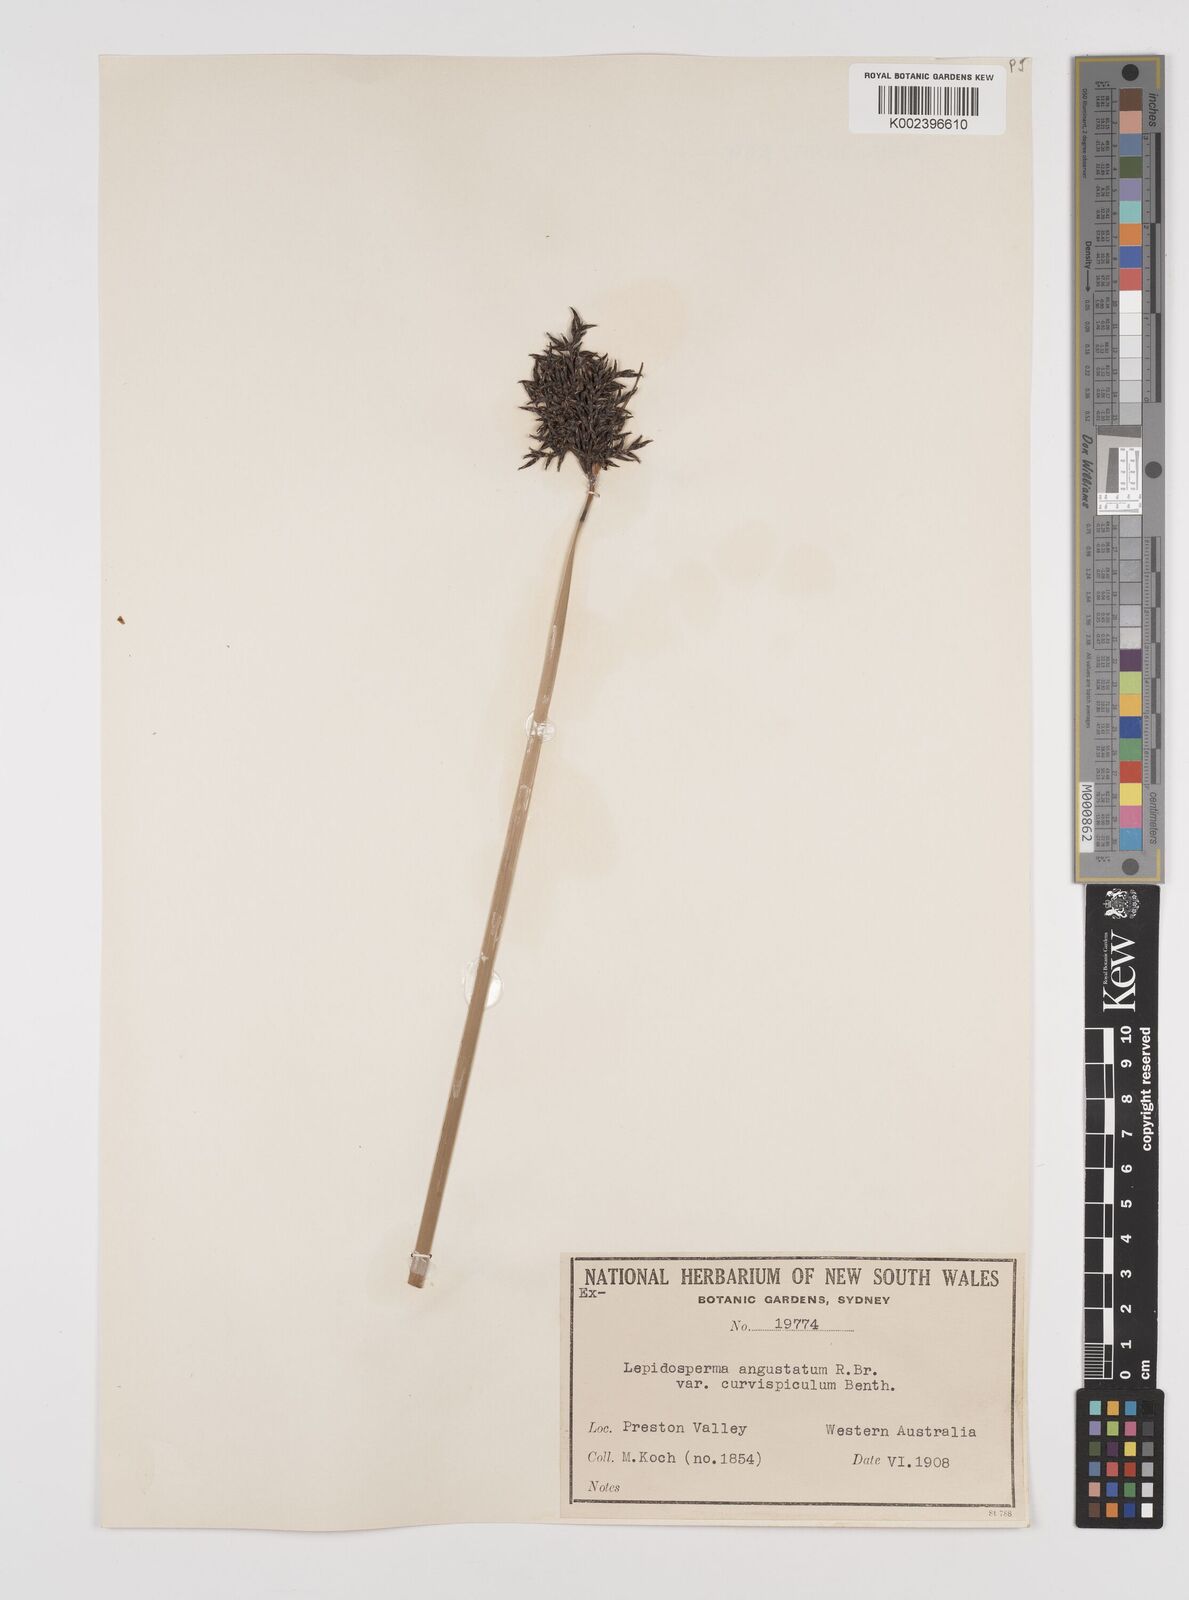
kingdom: Plantae
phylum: Tracheophyta
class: Liliopsida
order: Poales
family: Cyperaceae
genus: Lepidosperma
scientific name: Lepidosperma angustatum
